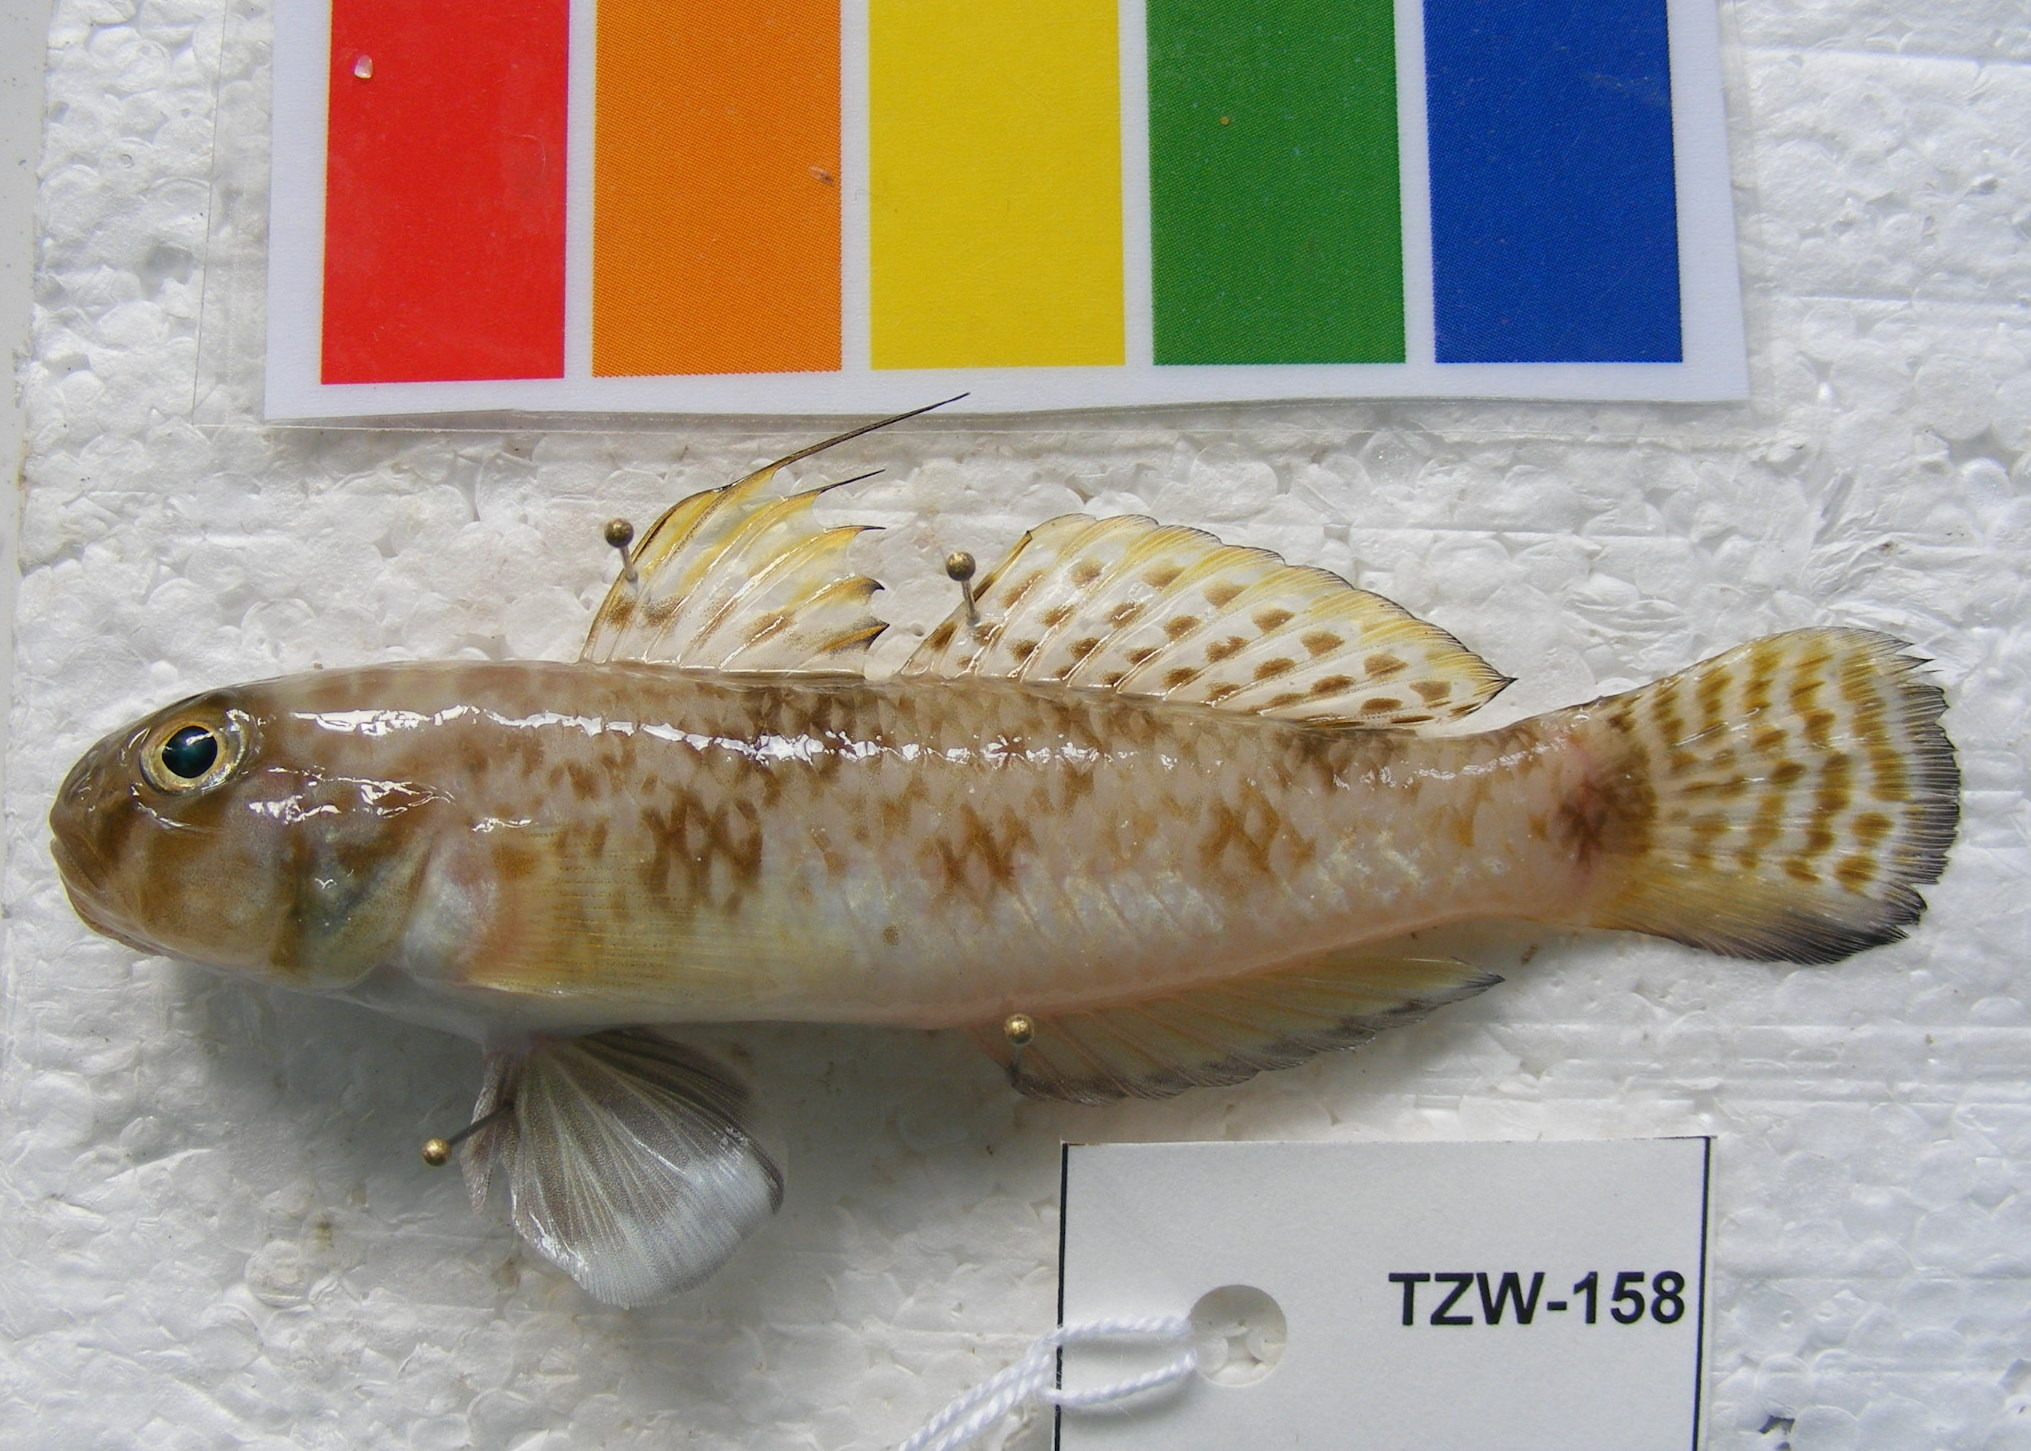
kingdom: Animalia
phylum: Chordata
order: Perciformes
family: Gobiidae
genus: Glossogobius
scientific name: Glossogobius
